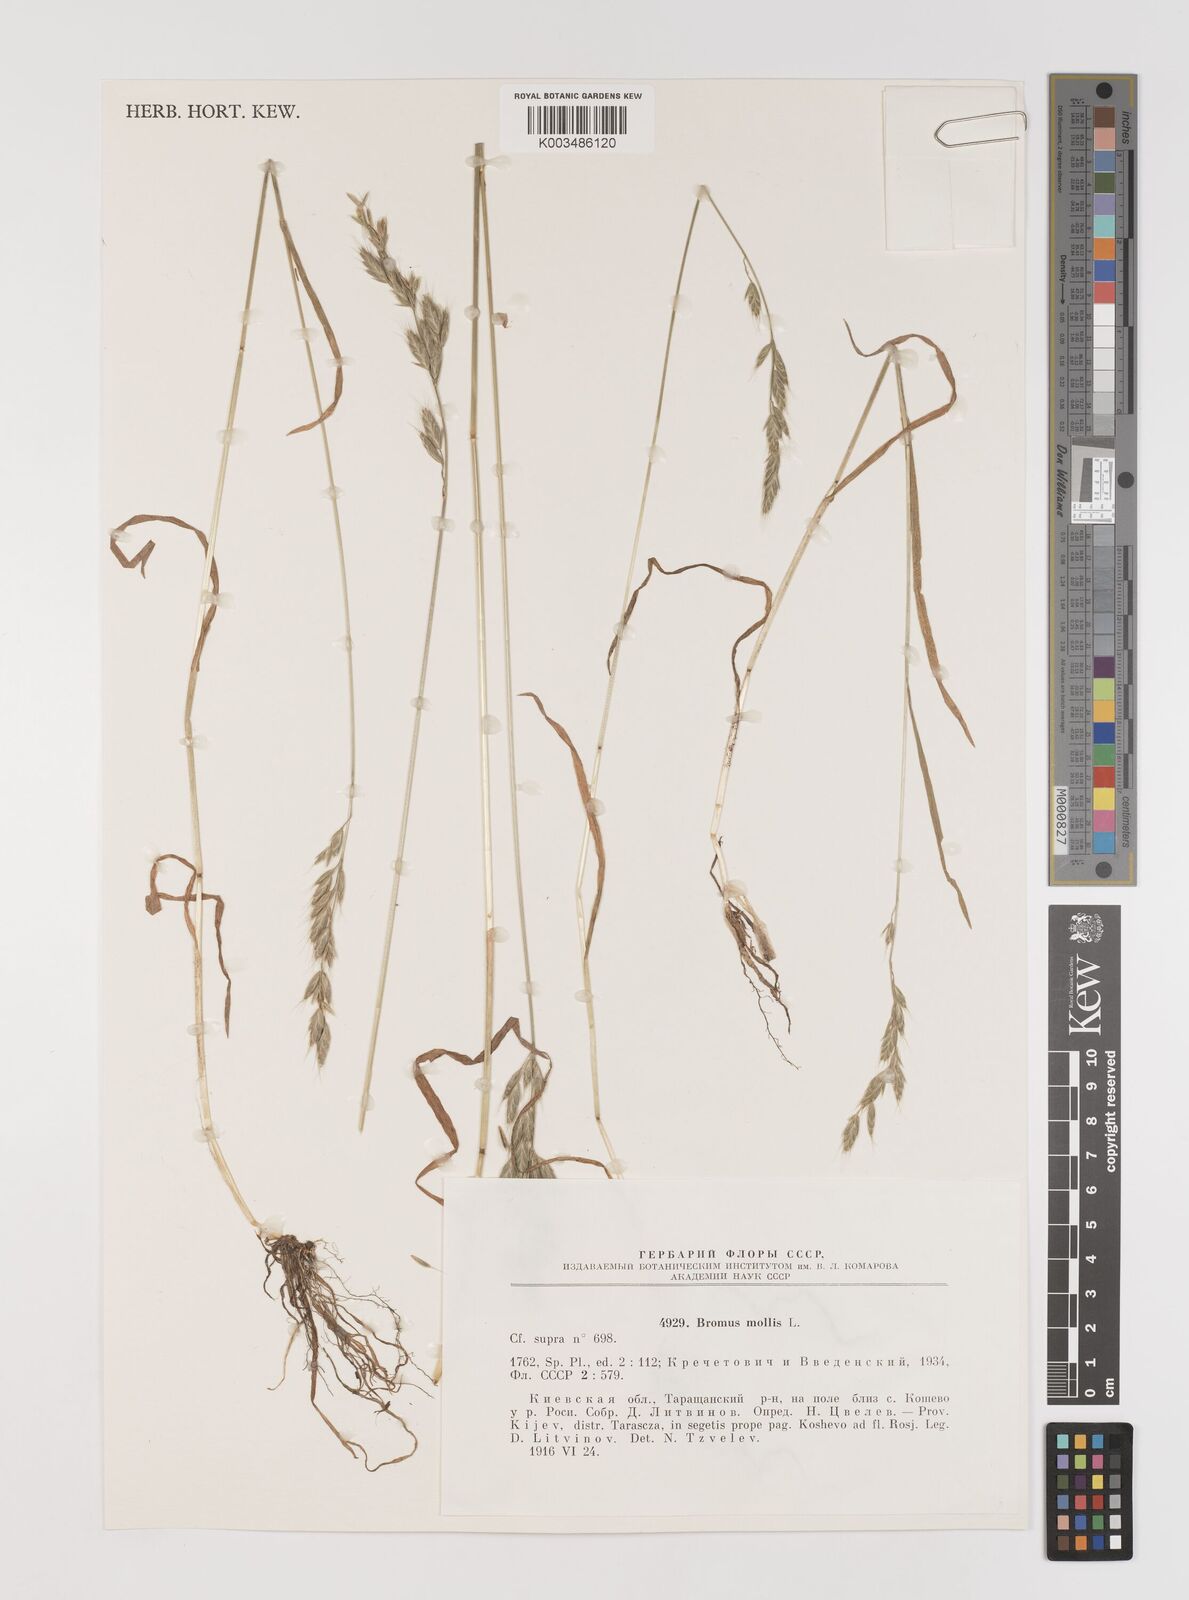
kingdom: Plantae
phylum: Tracheophyta
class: Liliopsida
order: Poales
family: Poaceae
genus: Bromus
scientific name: Bromus hordeaceus
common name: Soft brome
